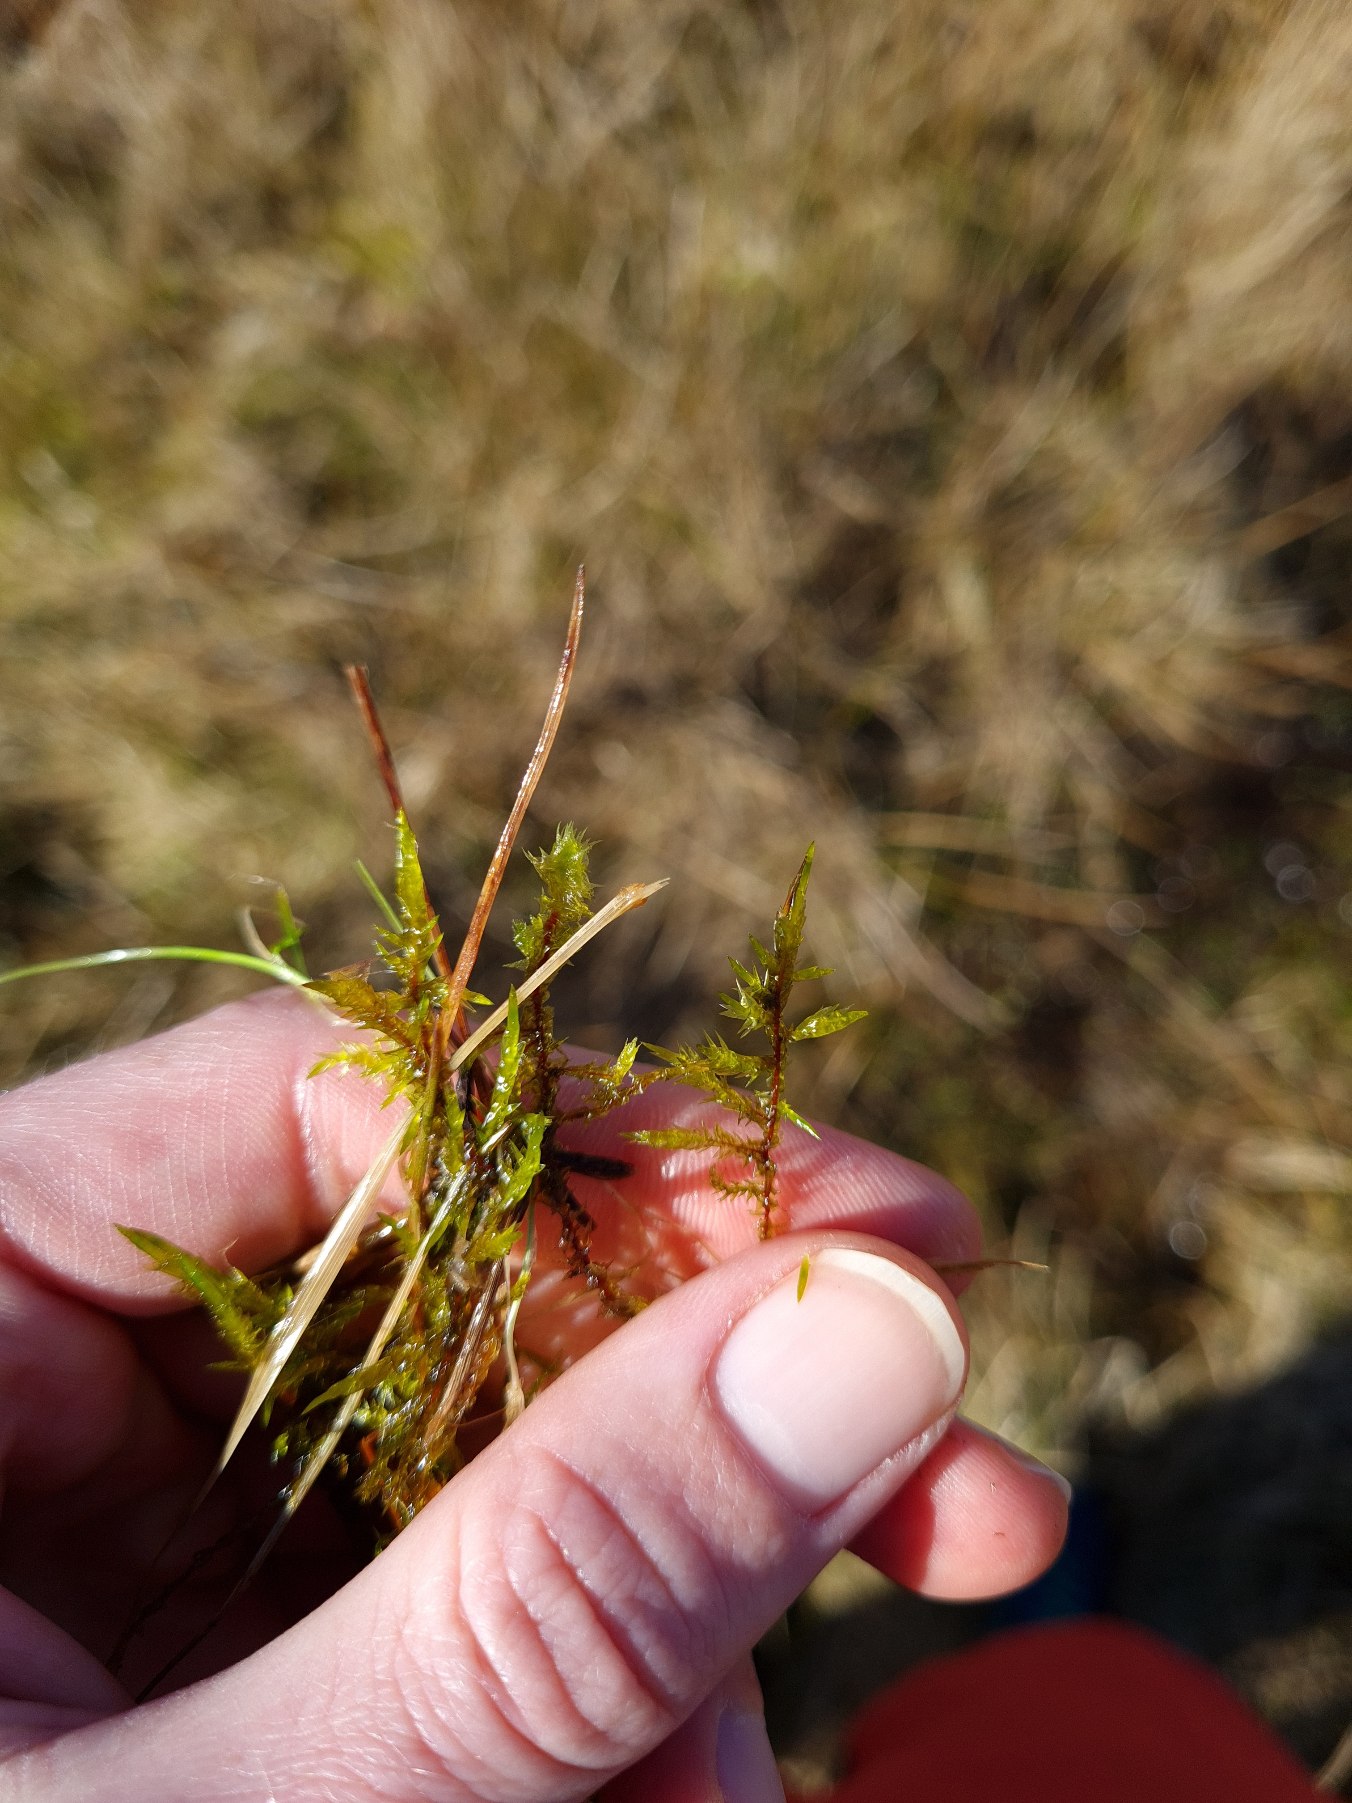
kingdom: Plantae
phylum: Bryophyta
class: Bryopsida
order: Hypnales
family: Pylaisiaceae
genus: Calliergonella
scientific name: Calliergonella cuspidata
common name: Spids spydmos
